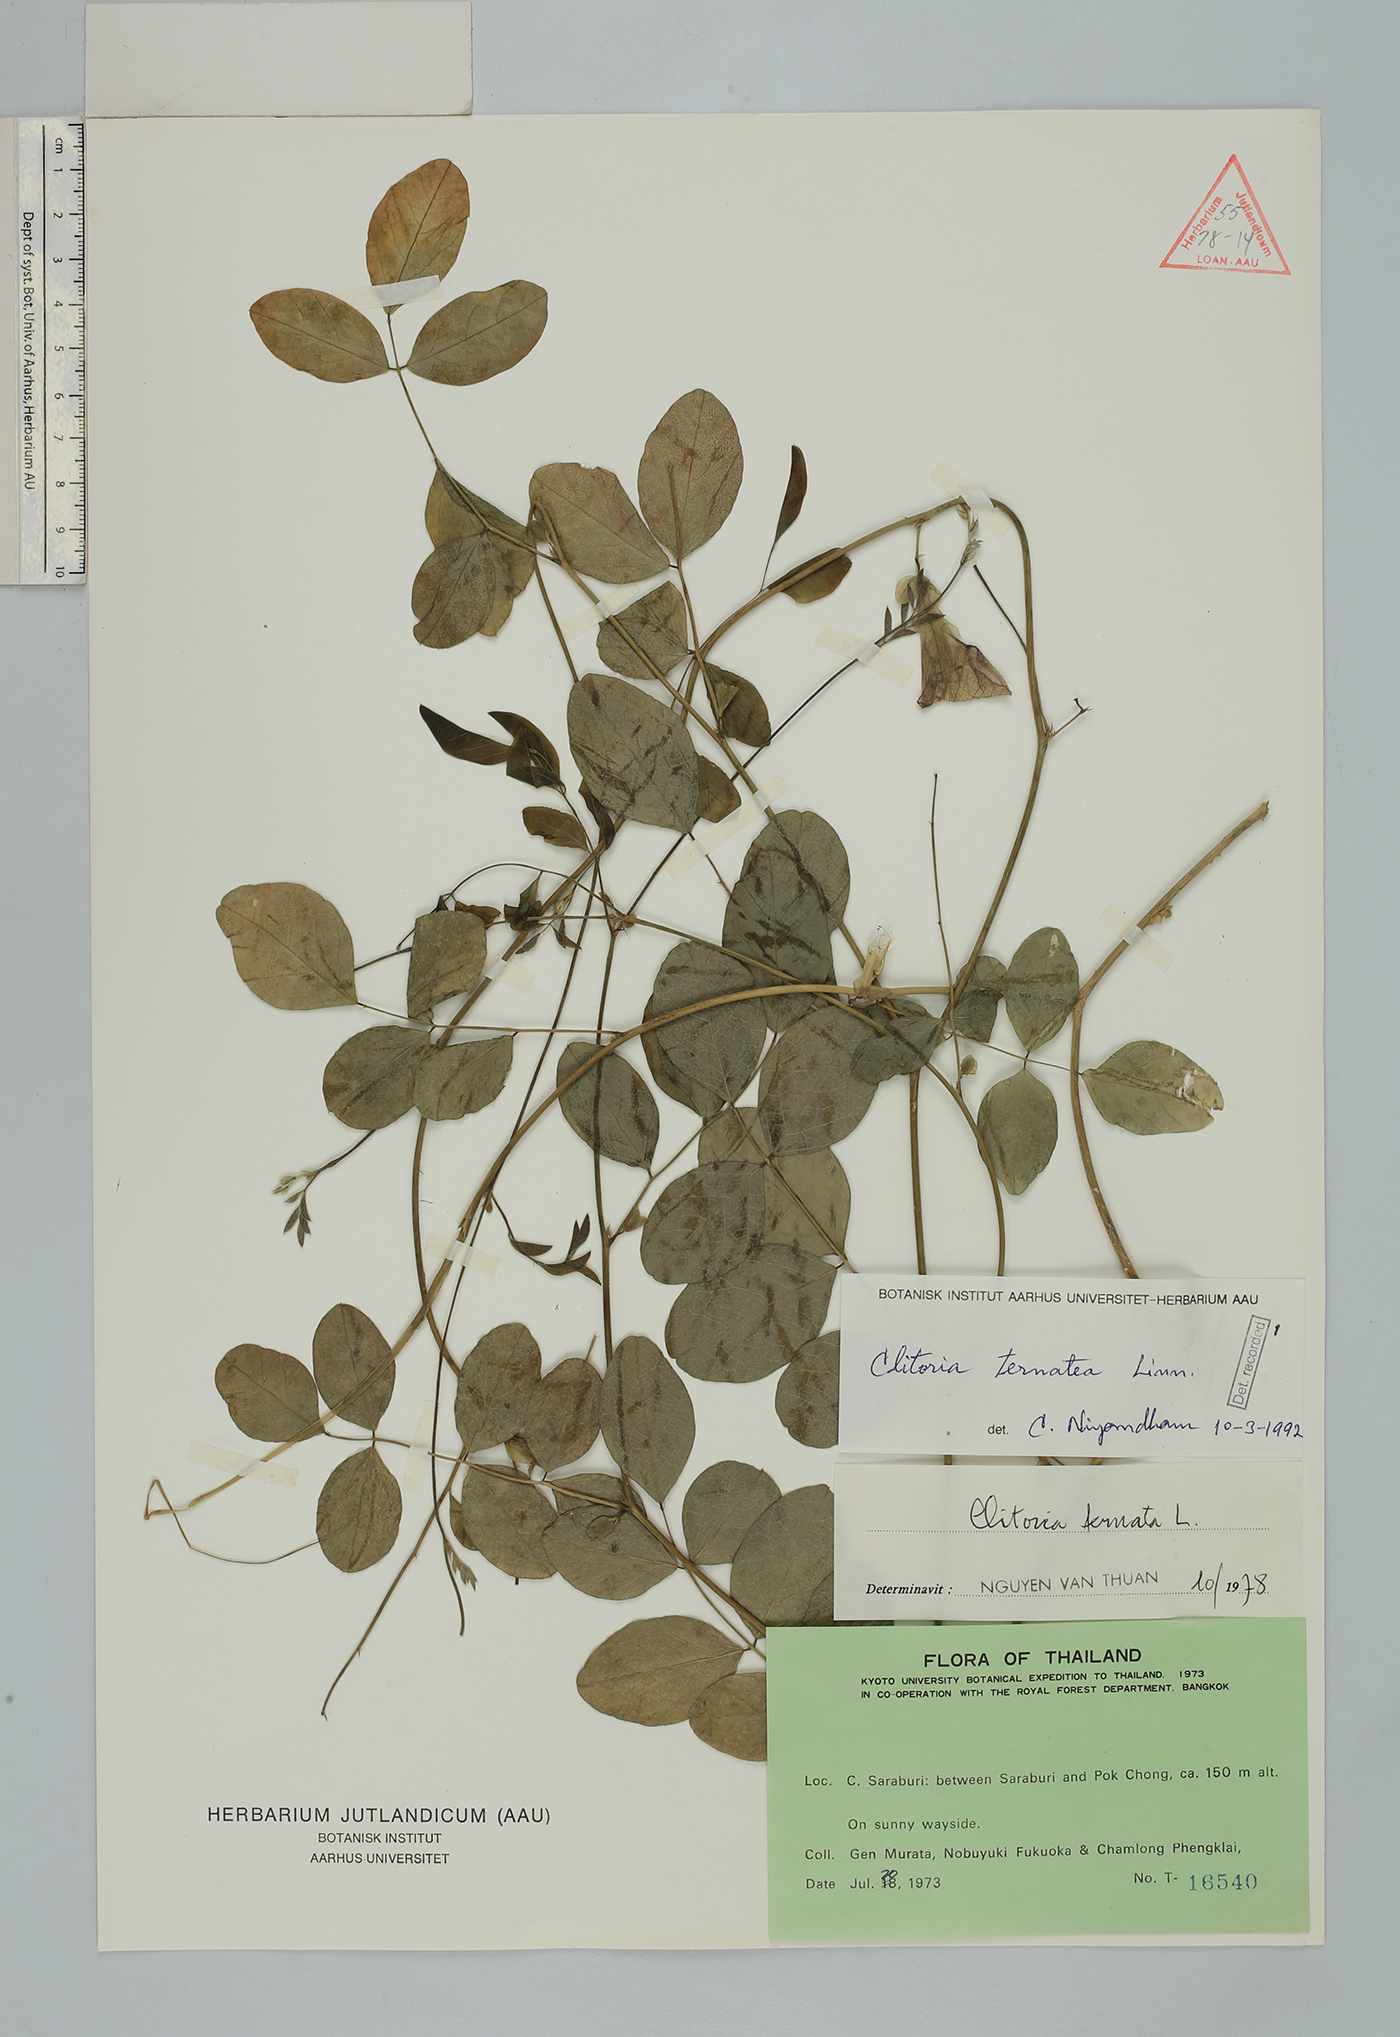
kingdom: Plantae
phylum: Tracheophyta
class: Magnoliopsida
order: Fabales
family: Fabaceae
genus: Clitoria
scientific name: Clitoria ternatea
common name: Asian pigeonwings
